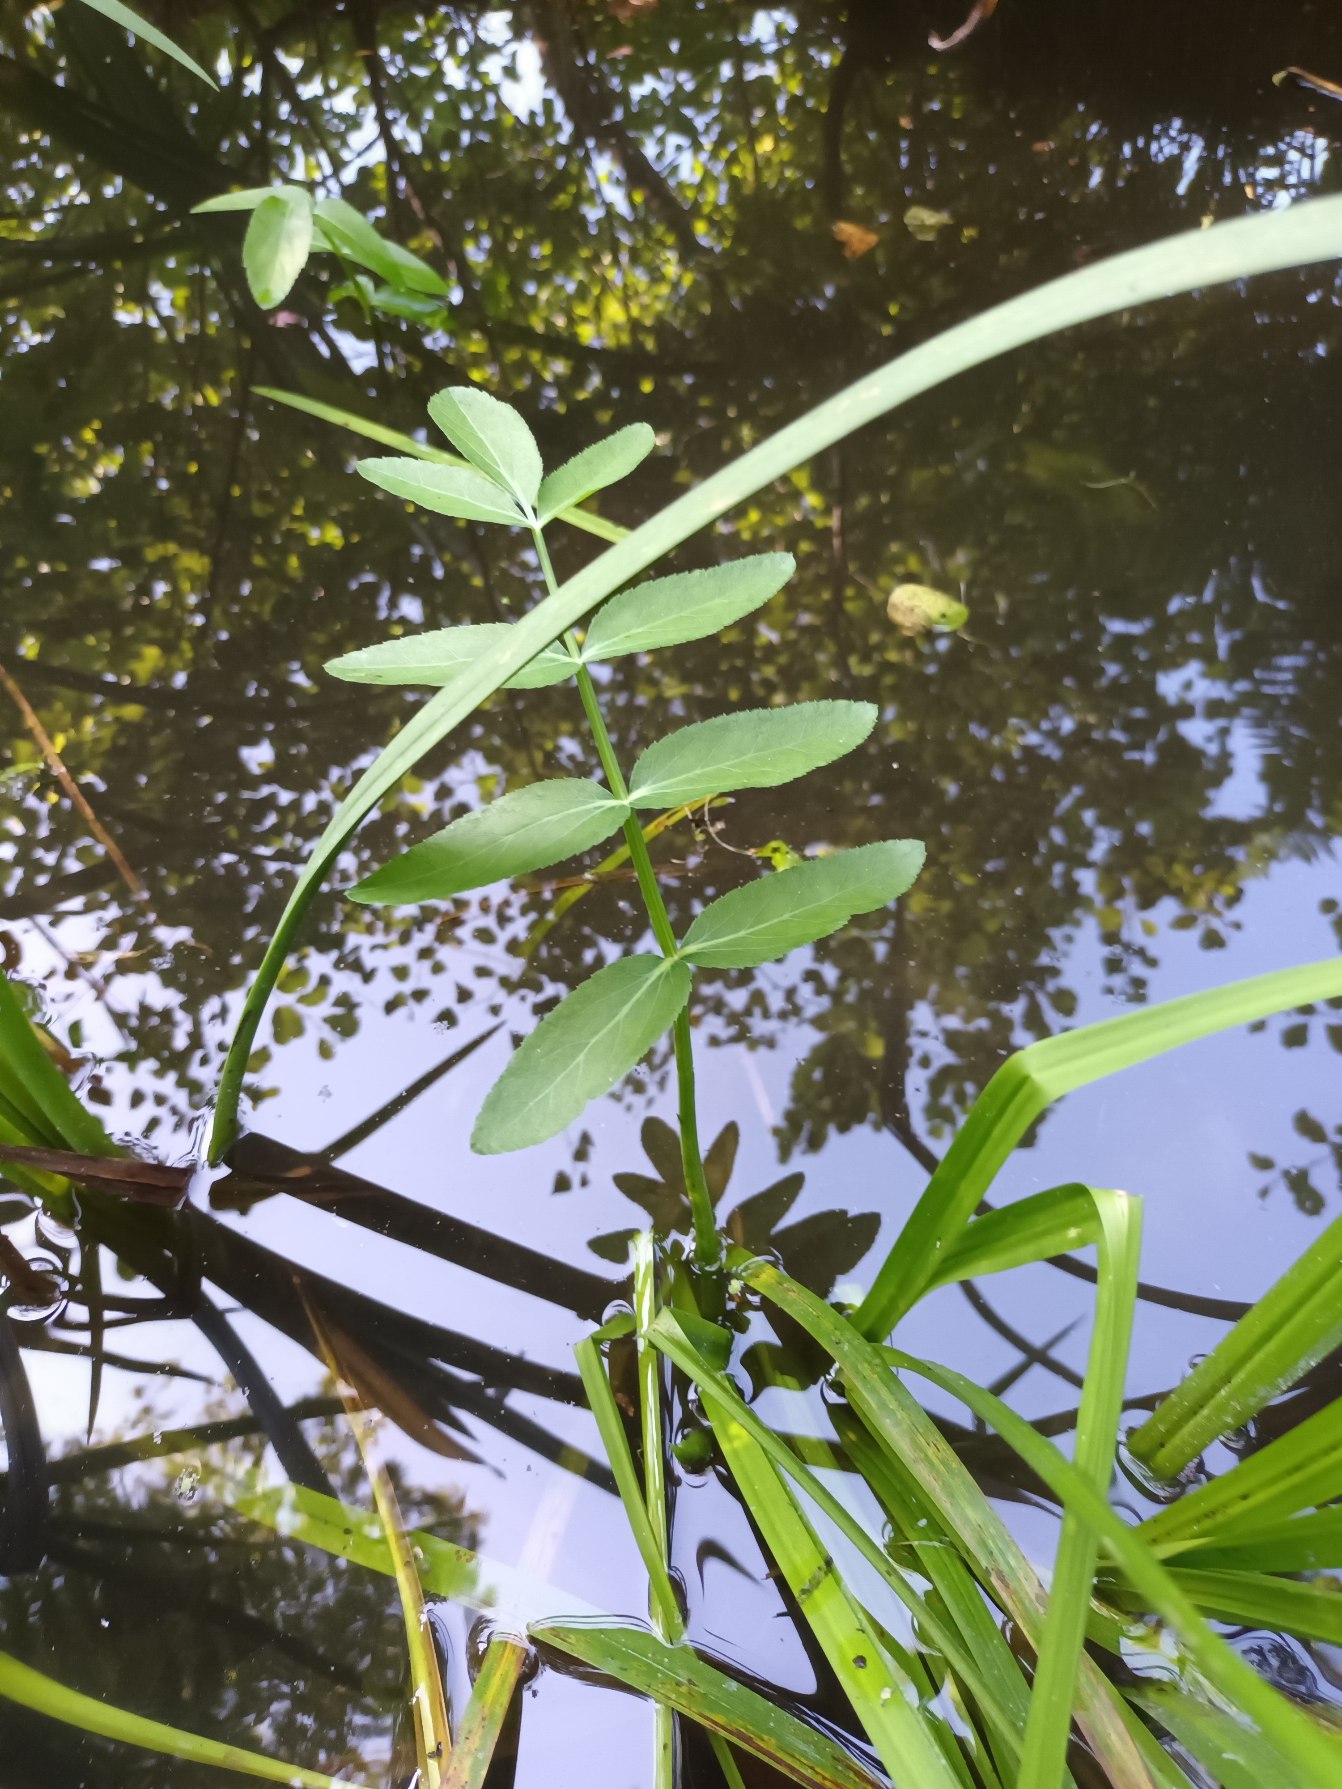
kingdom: Plantae
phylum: Tracheophyta
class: Magnoliopsida
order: Apiales
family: Apiaceae
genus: Sium
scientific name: Sium latifolium
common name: Bredbladet mærke
